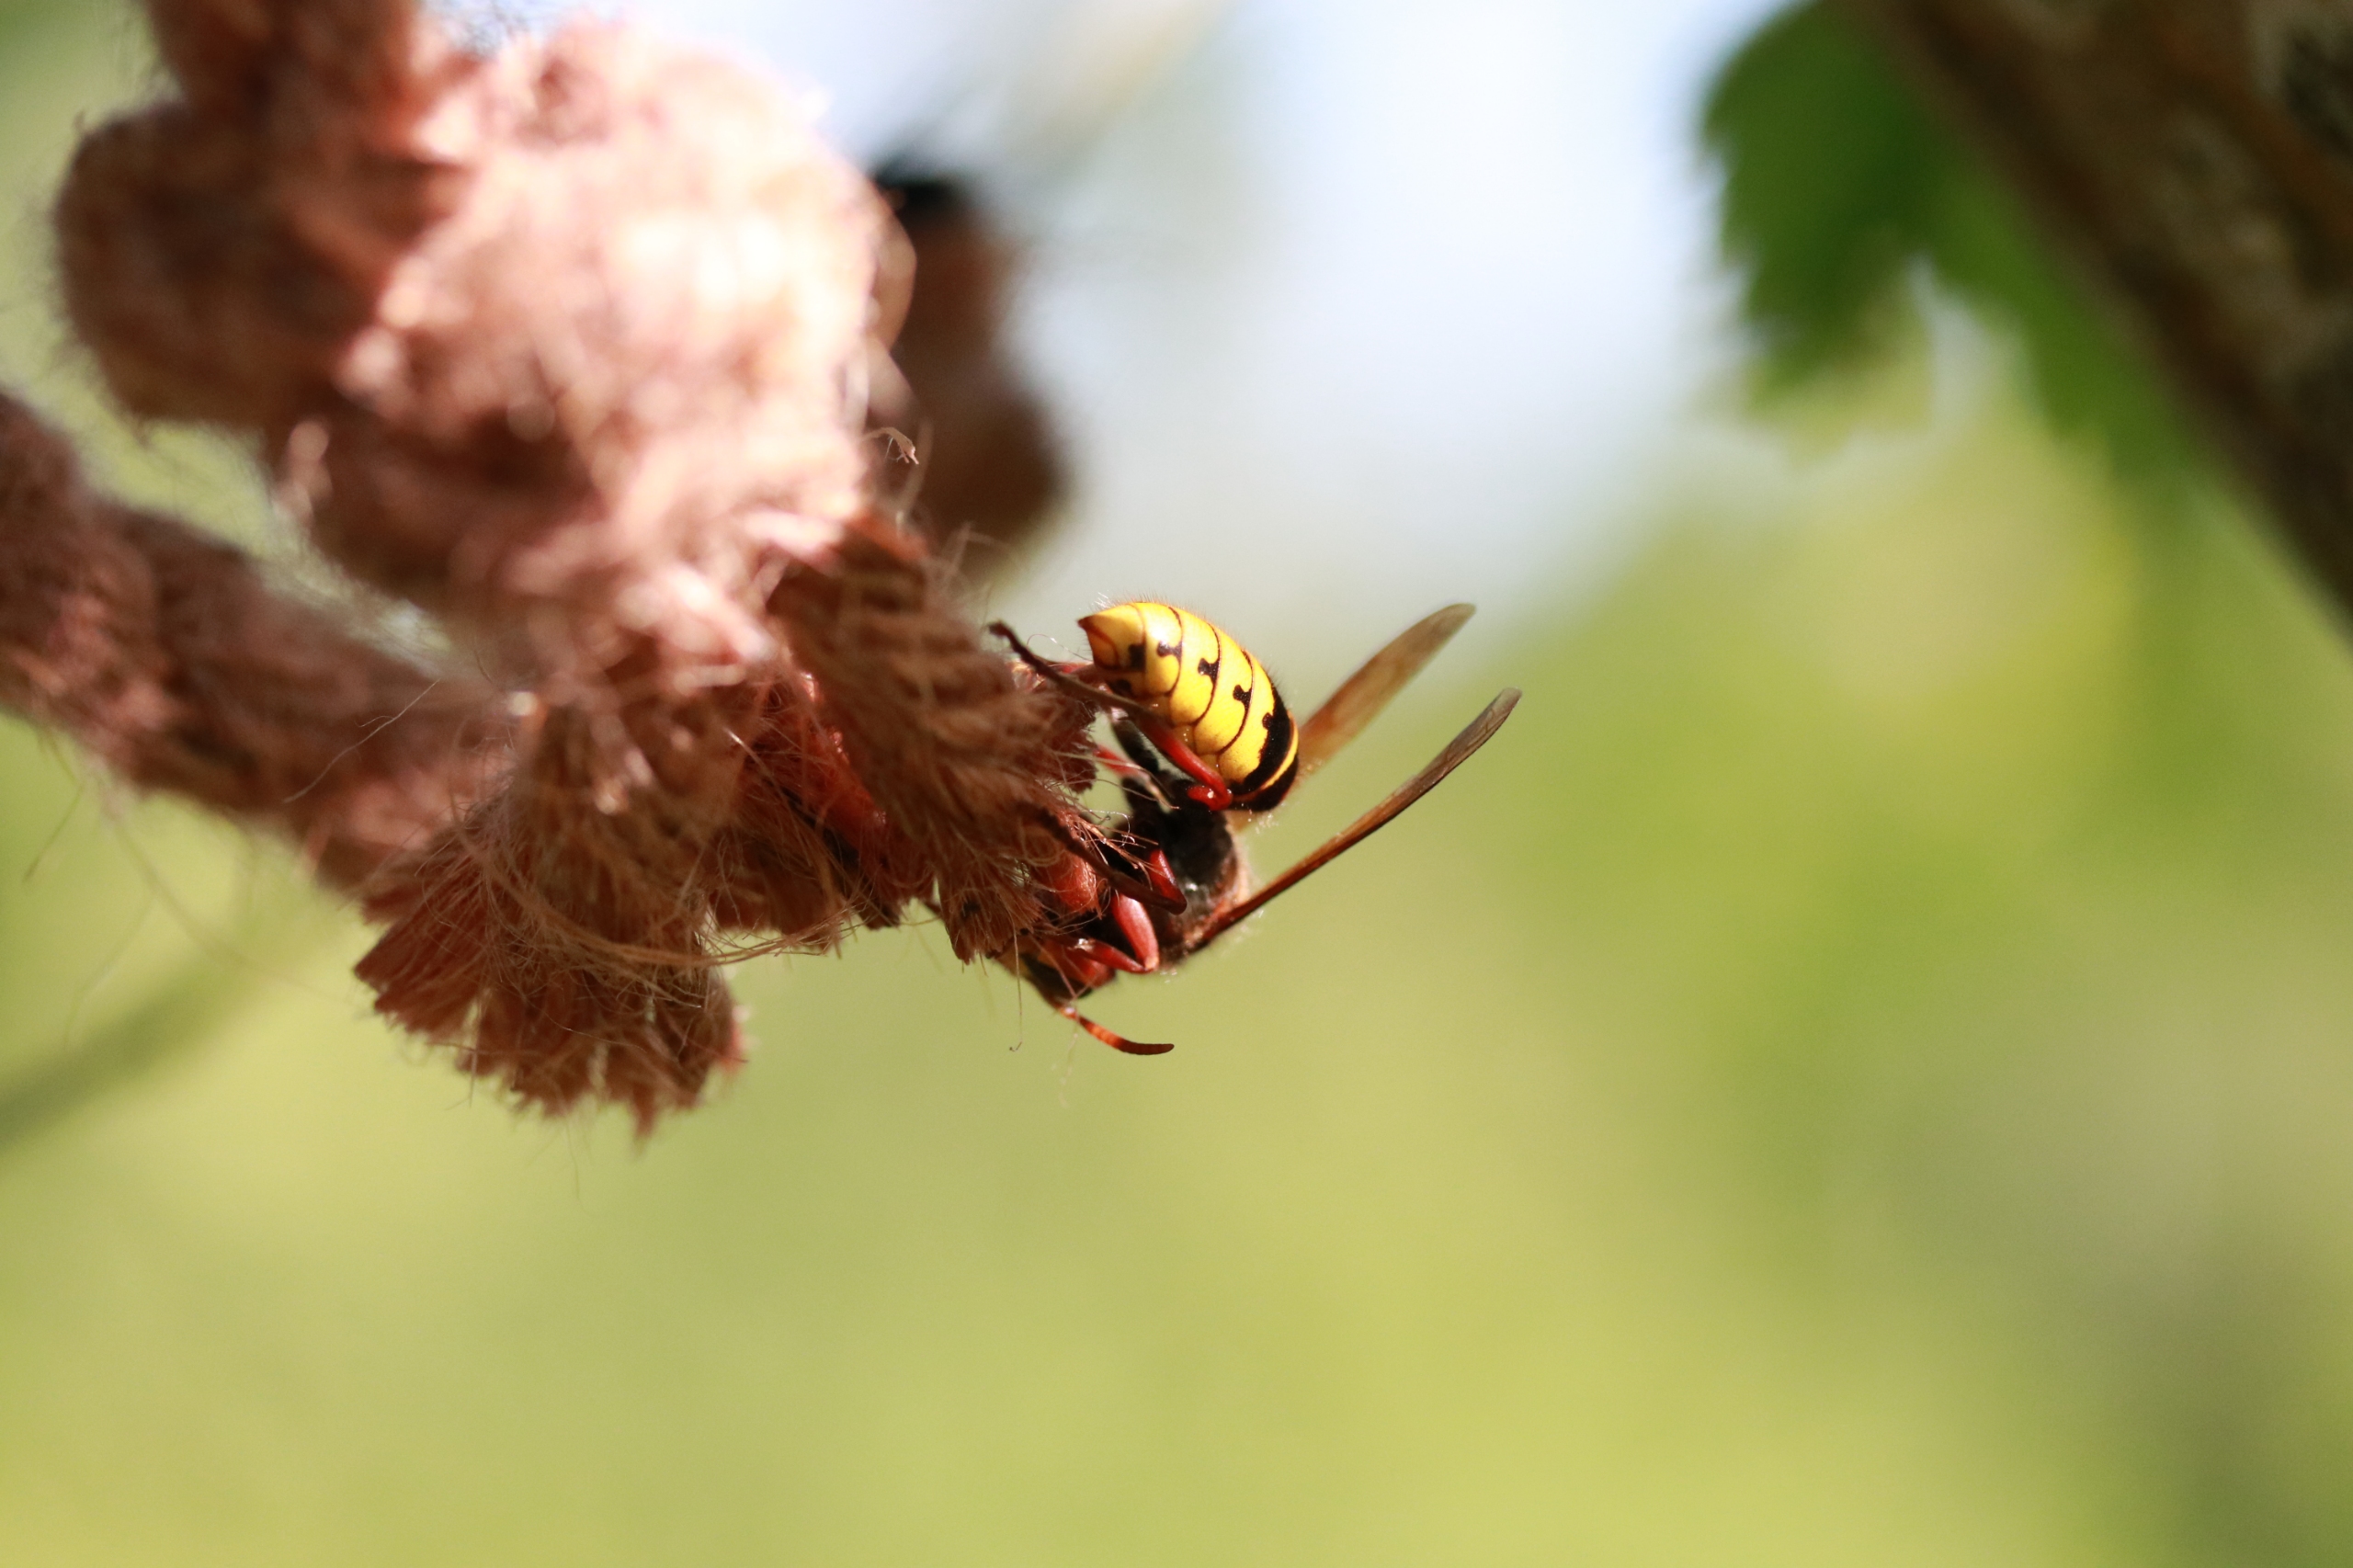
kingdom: Animalia
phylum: Arthropoda
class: Insecta
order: Hymenoptera
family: Vespidae
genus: Vespa
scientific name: Vespa crabro
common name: Stor gedehams
